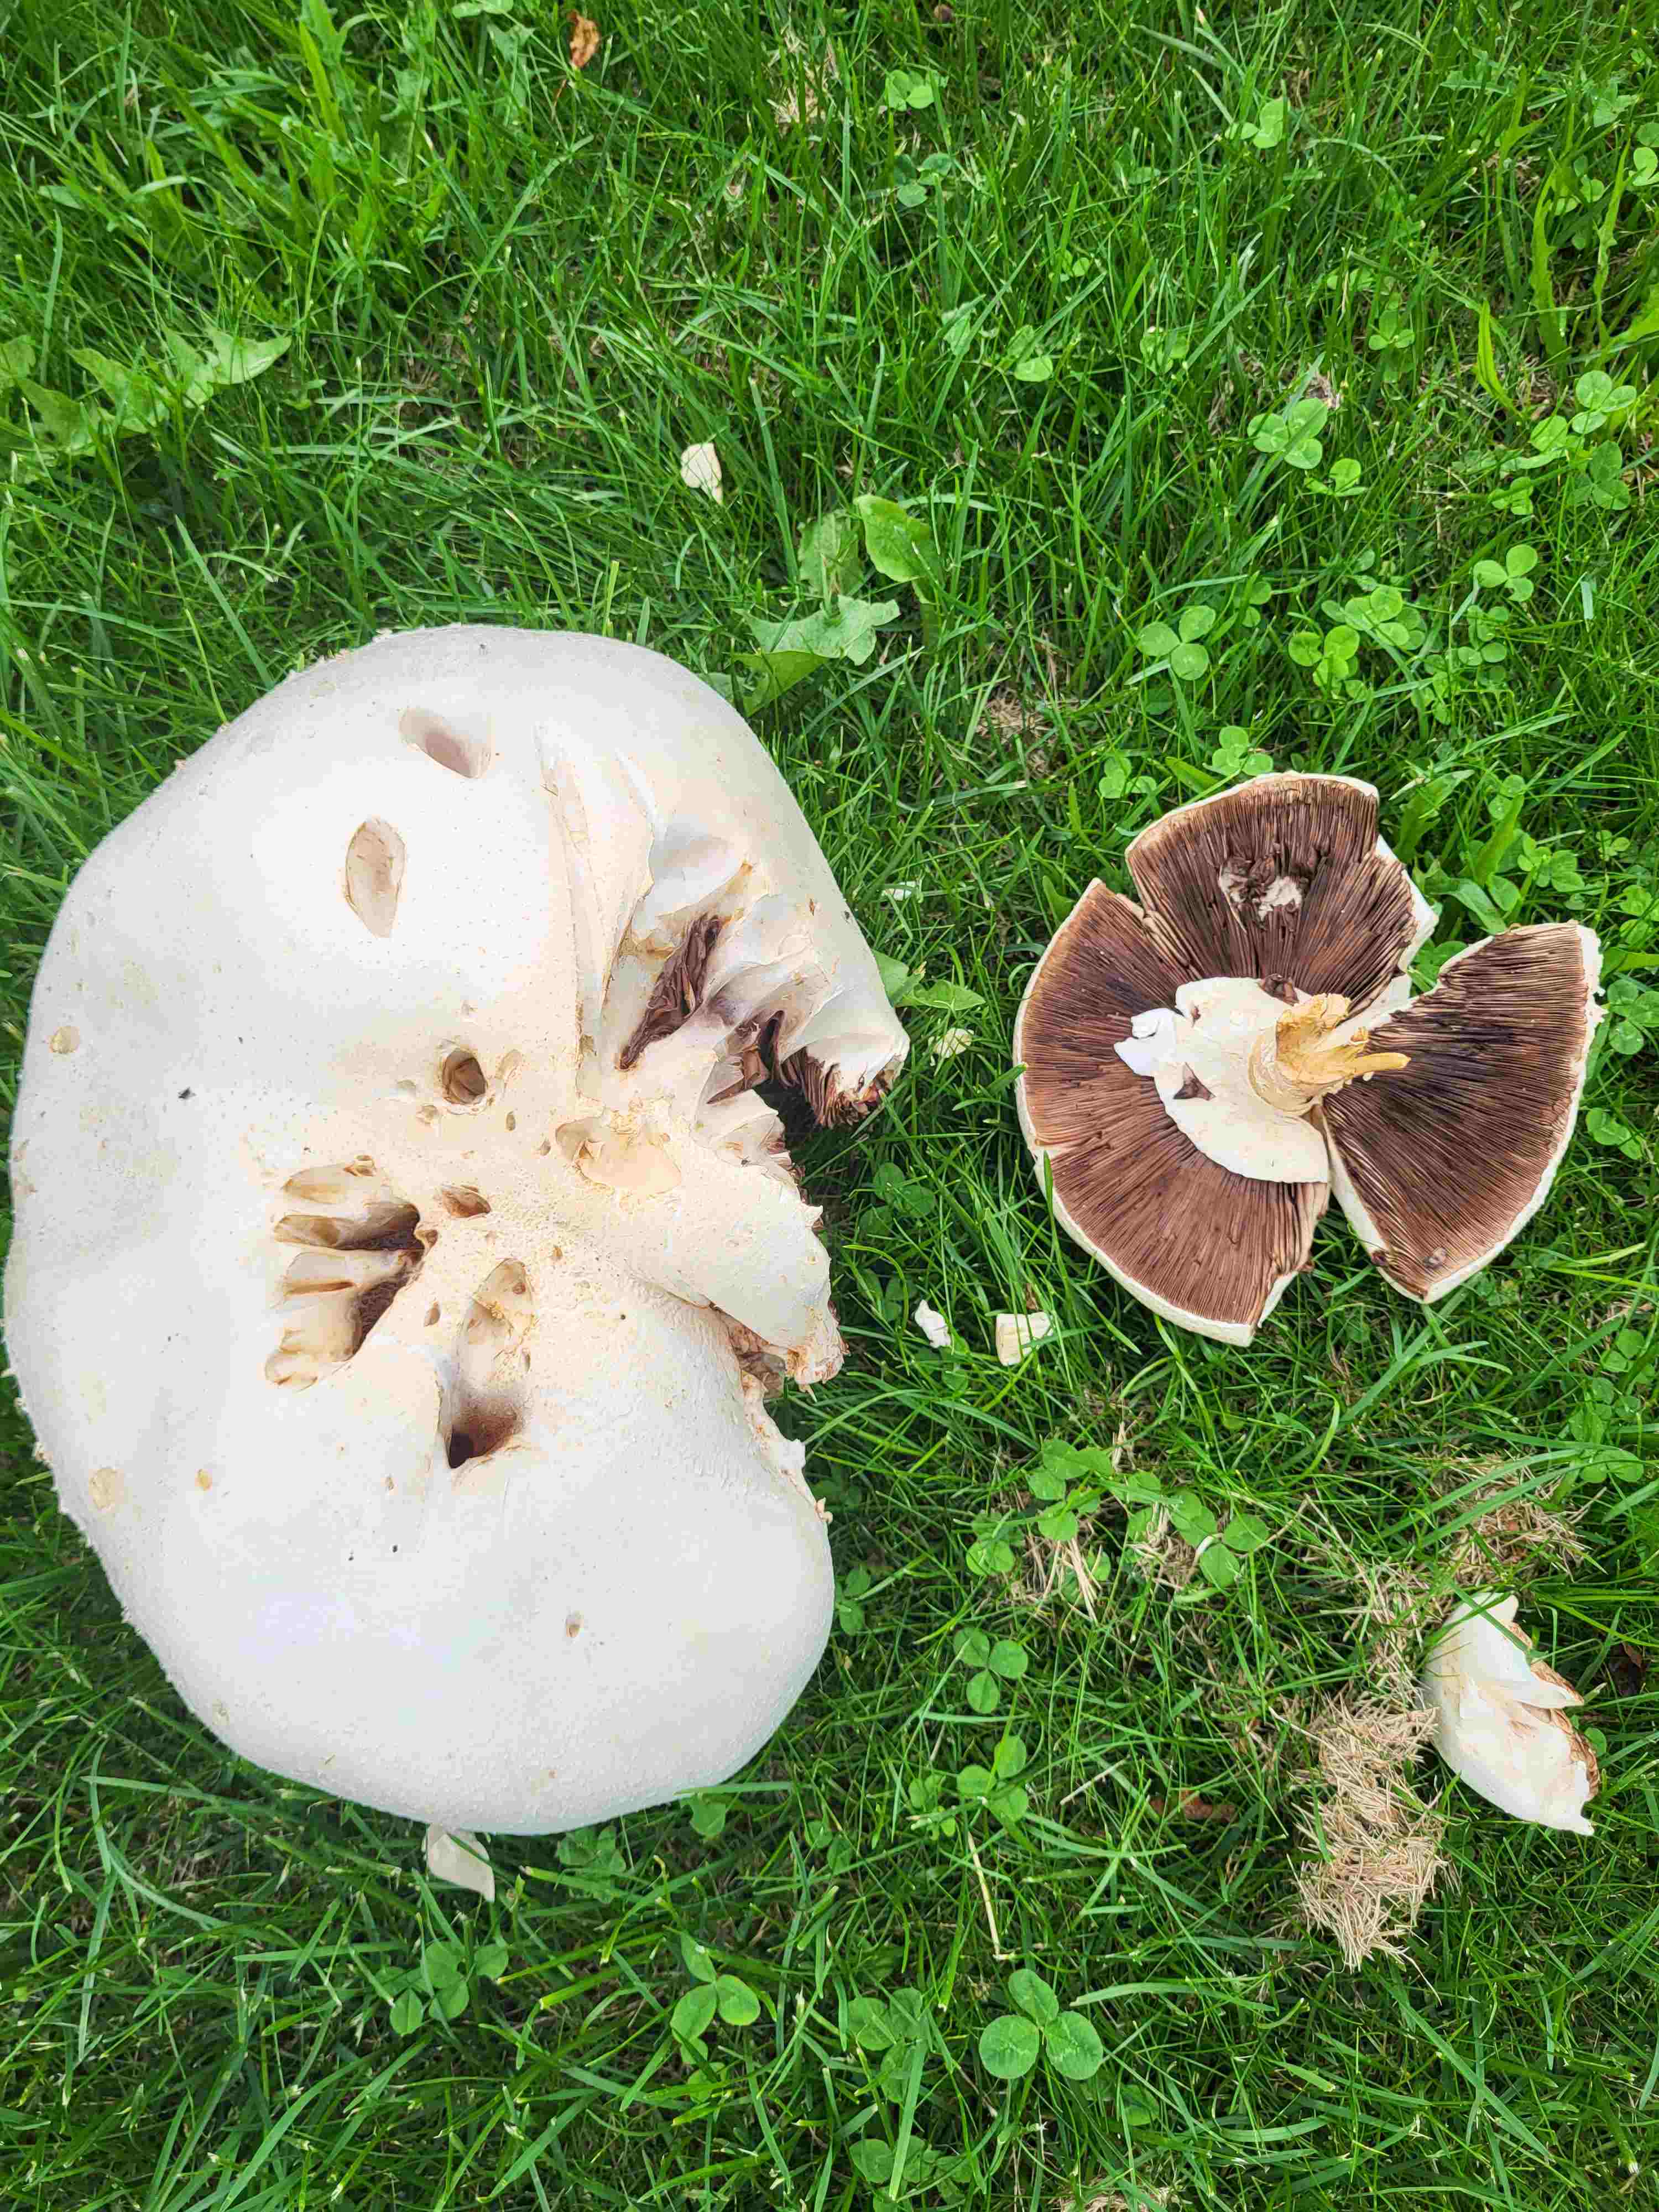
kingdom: Fungi
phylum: Basidiomycota
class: Agaricomycetes
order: Agaricales
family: Agaricaceae
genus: Agaricus
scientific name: Agaricus
